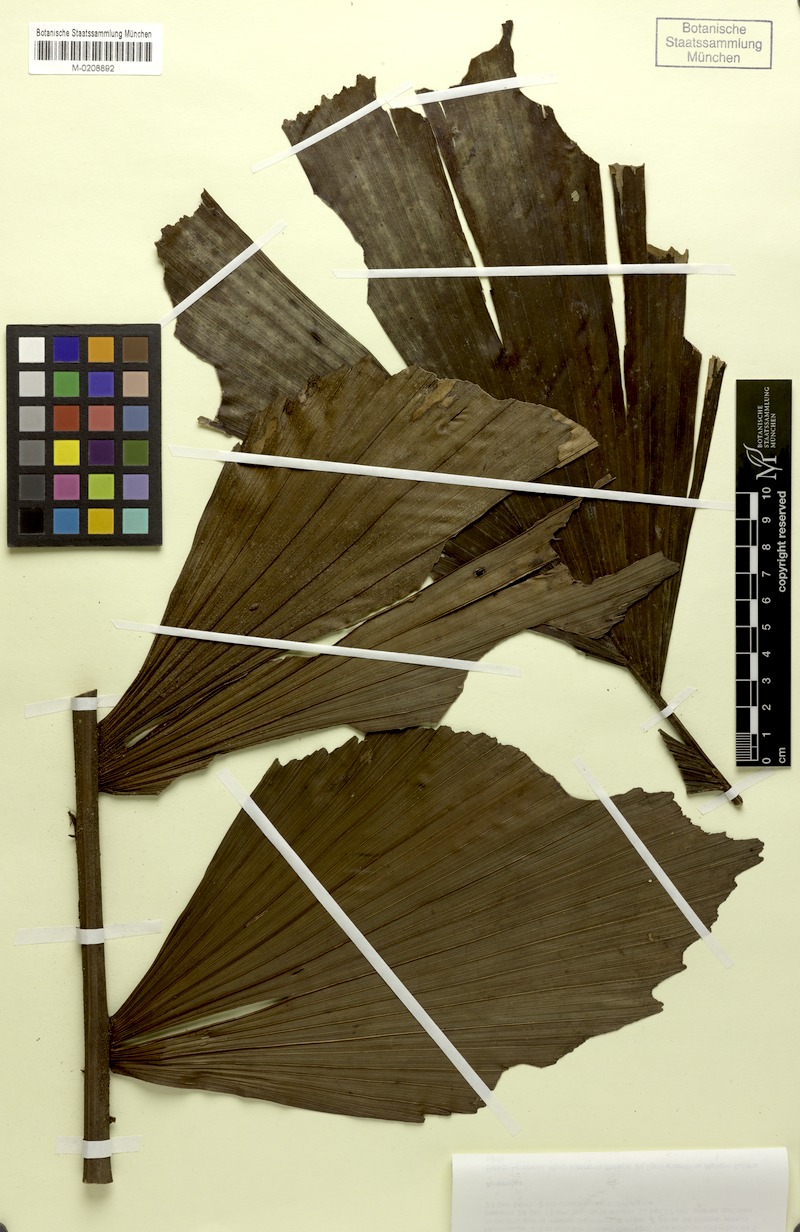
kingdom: Plantae
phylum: Tracheophyta
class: Liliopsida
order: Arecales
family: Arecaceae
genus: Iriartella
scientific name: Iriartella setigera
